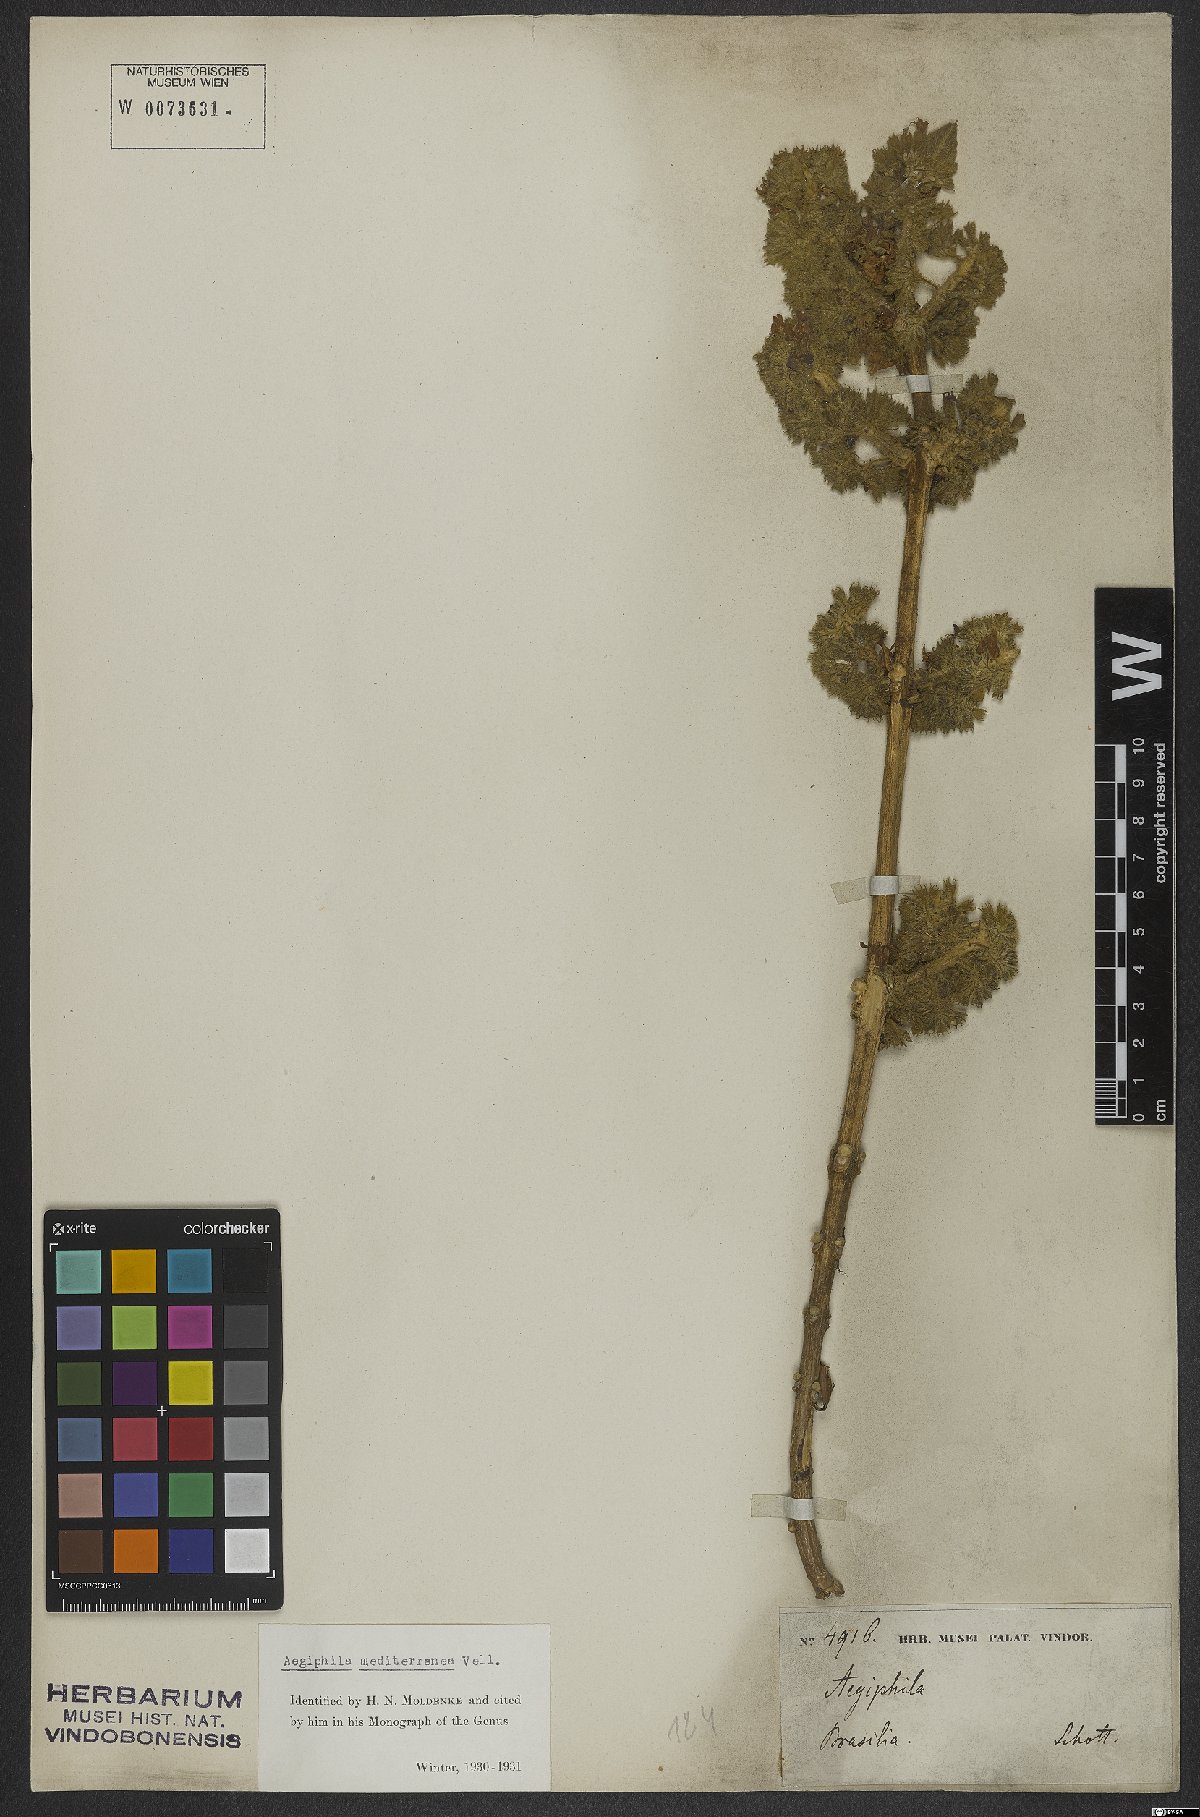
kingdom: Plantae
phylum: Tracheophyta
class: Magnoliopsida
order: Lamiales
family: Lamiaceae
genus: Aegiphila
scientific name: Aegiphila mediterranea
